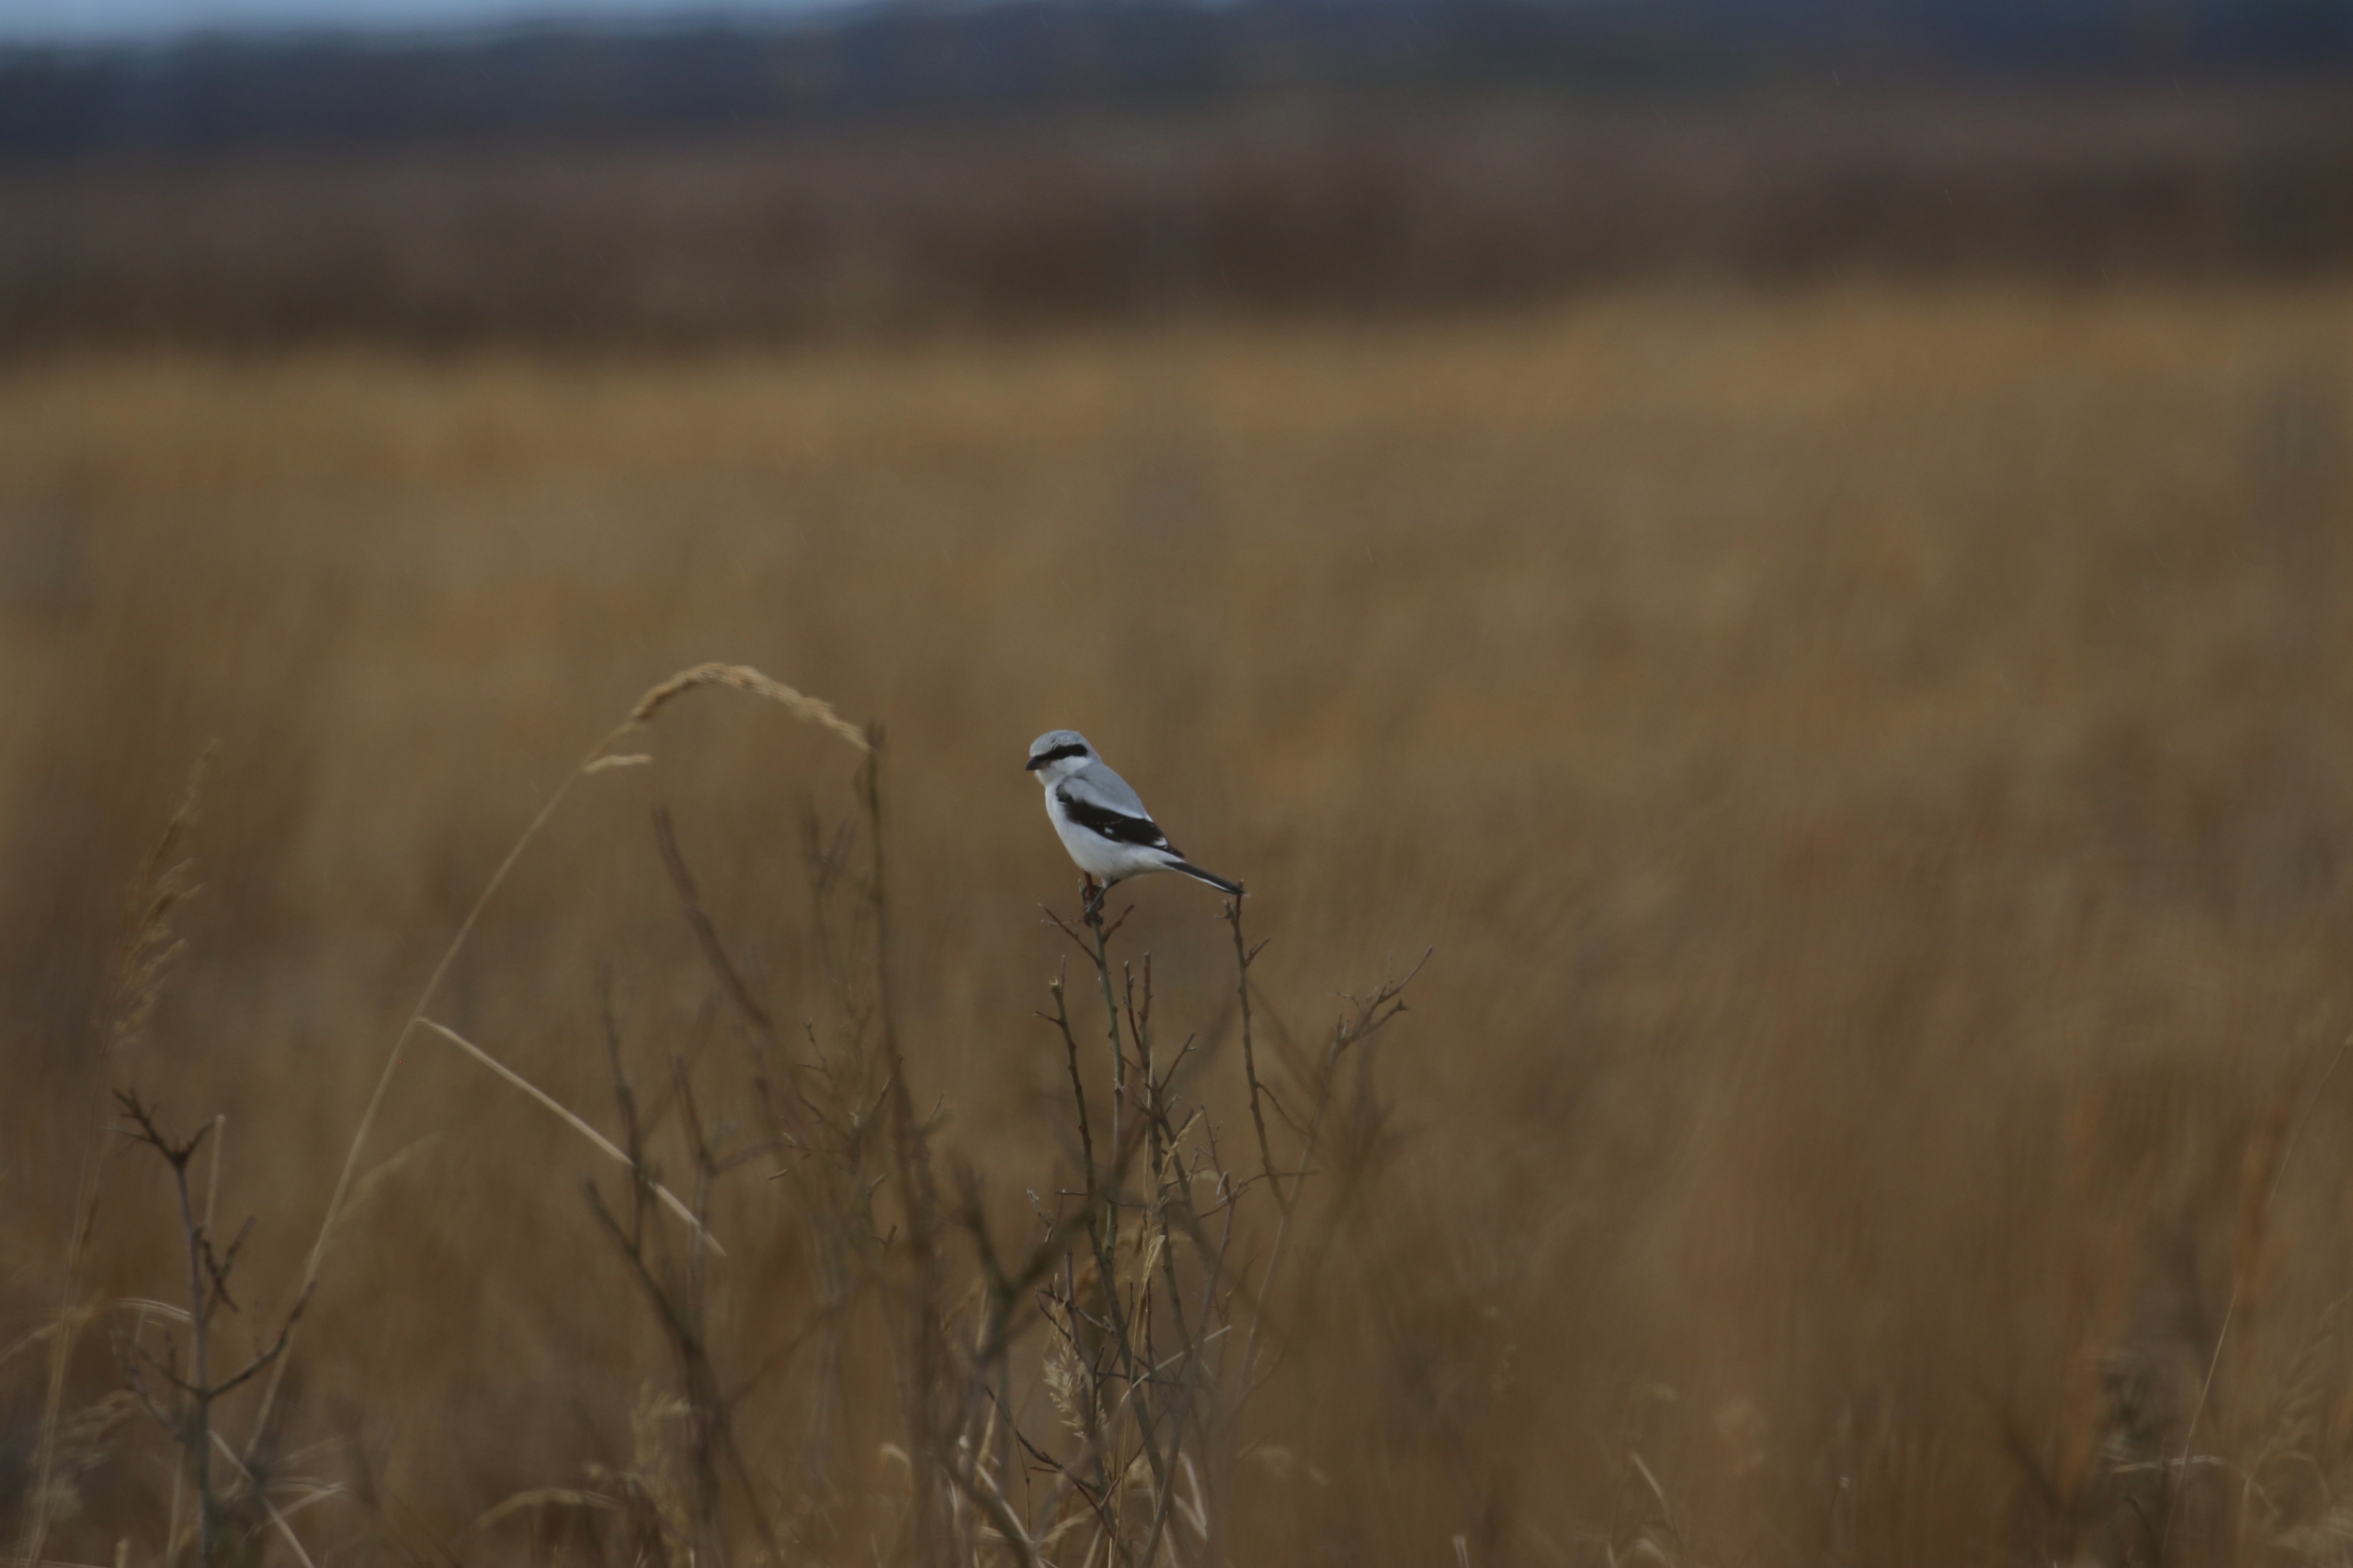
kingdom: Animalia
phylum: Chordata
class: Aves
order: Passeriformes
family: Laniidae
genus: Lanius
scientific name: Lanius excubitor
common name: Stor tornskade
